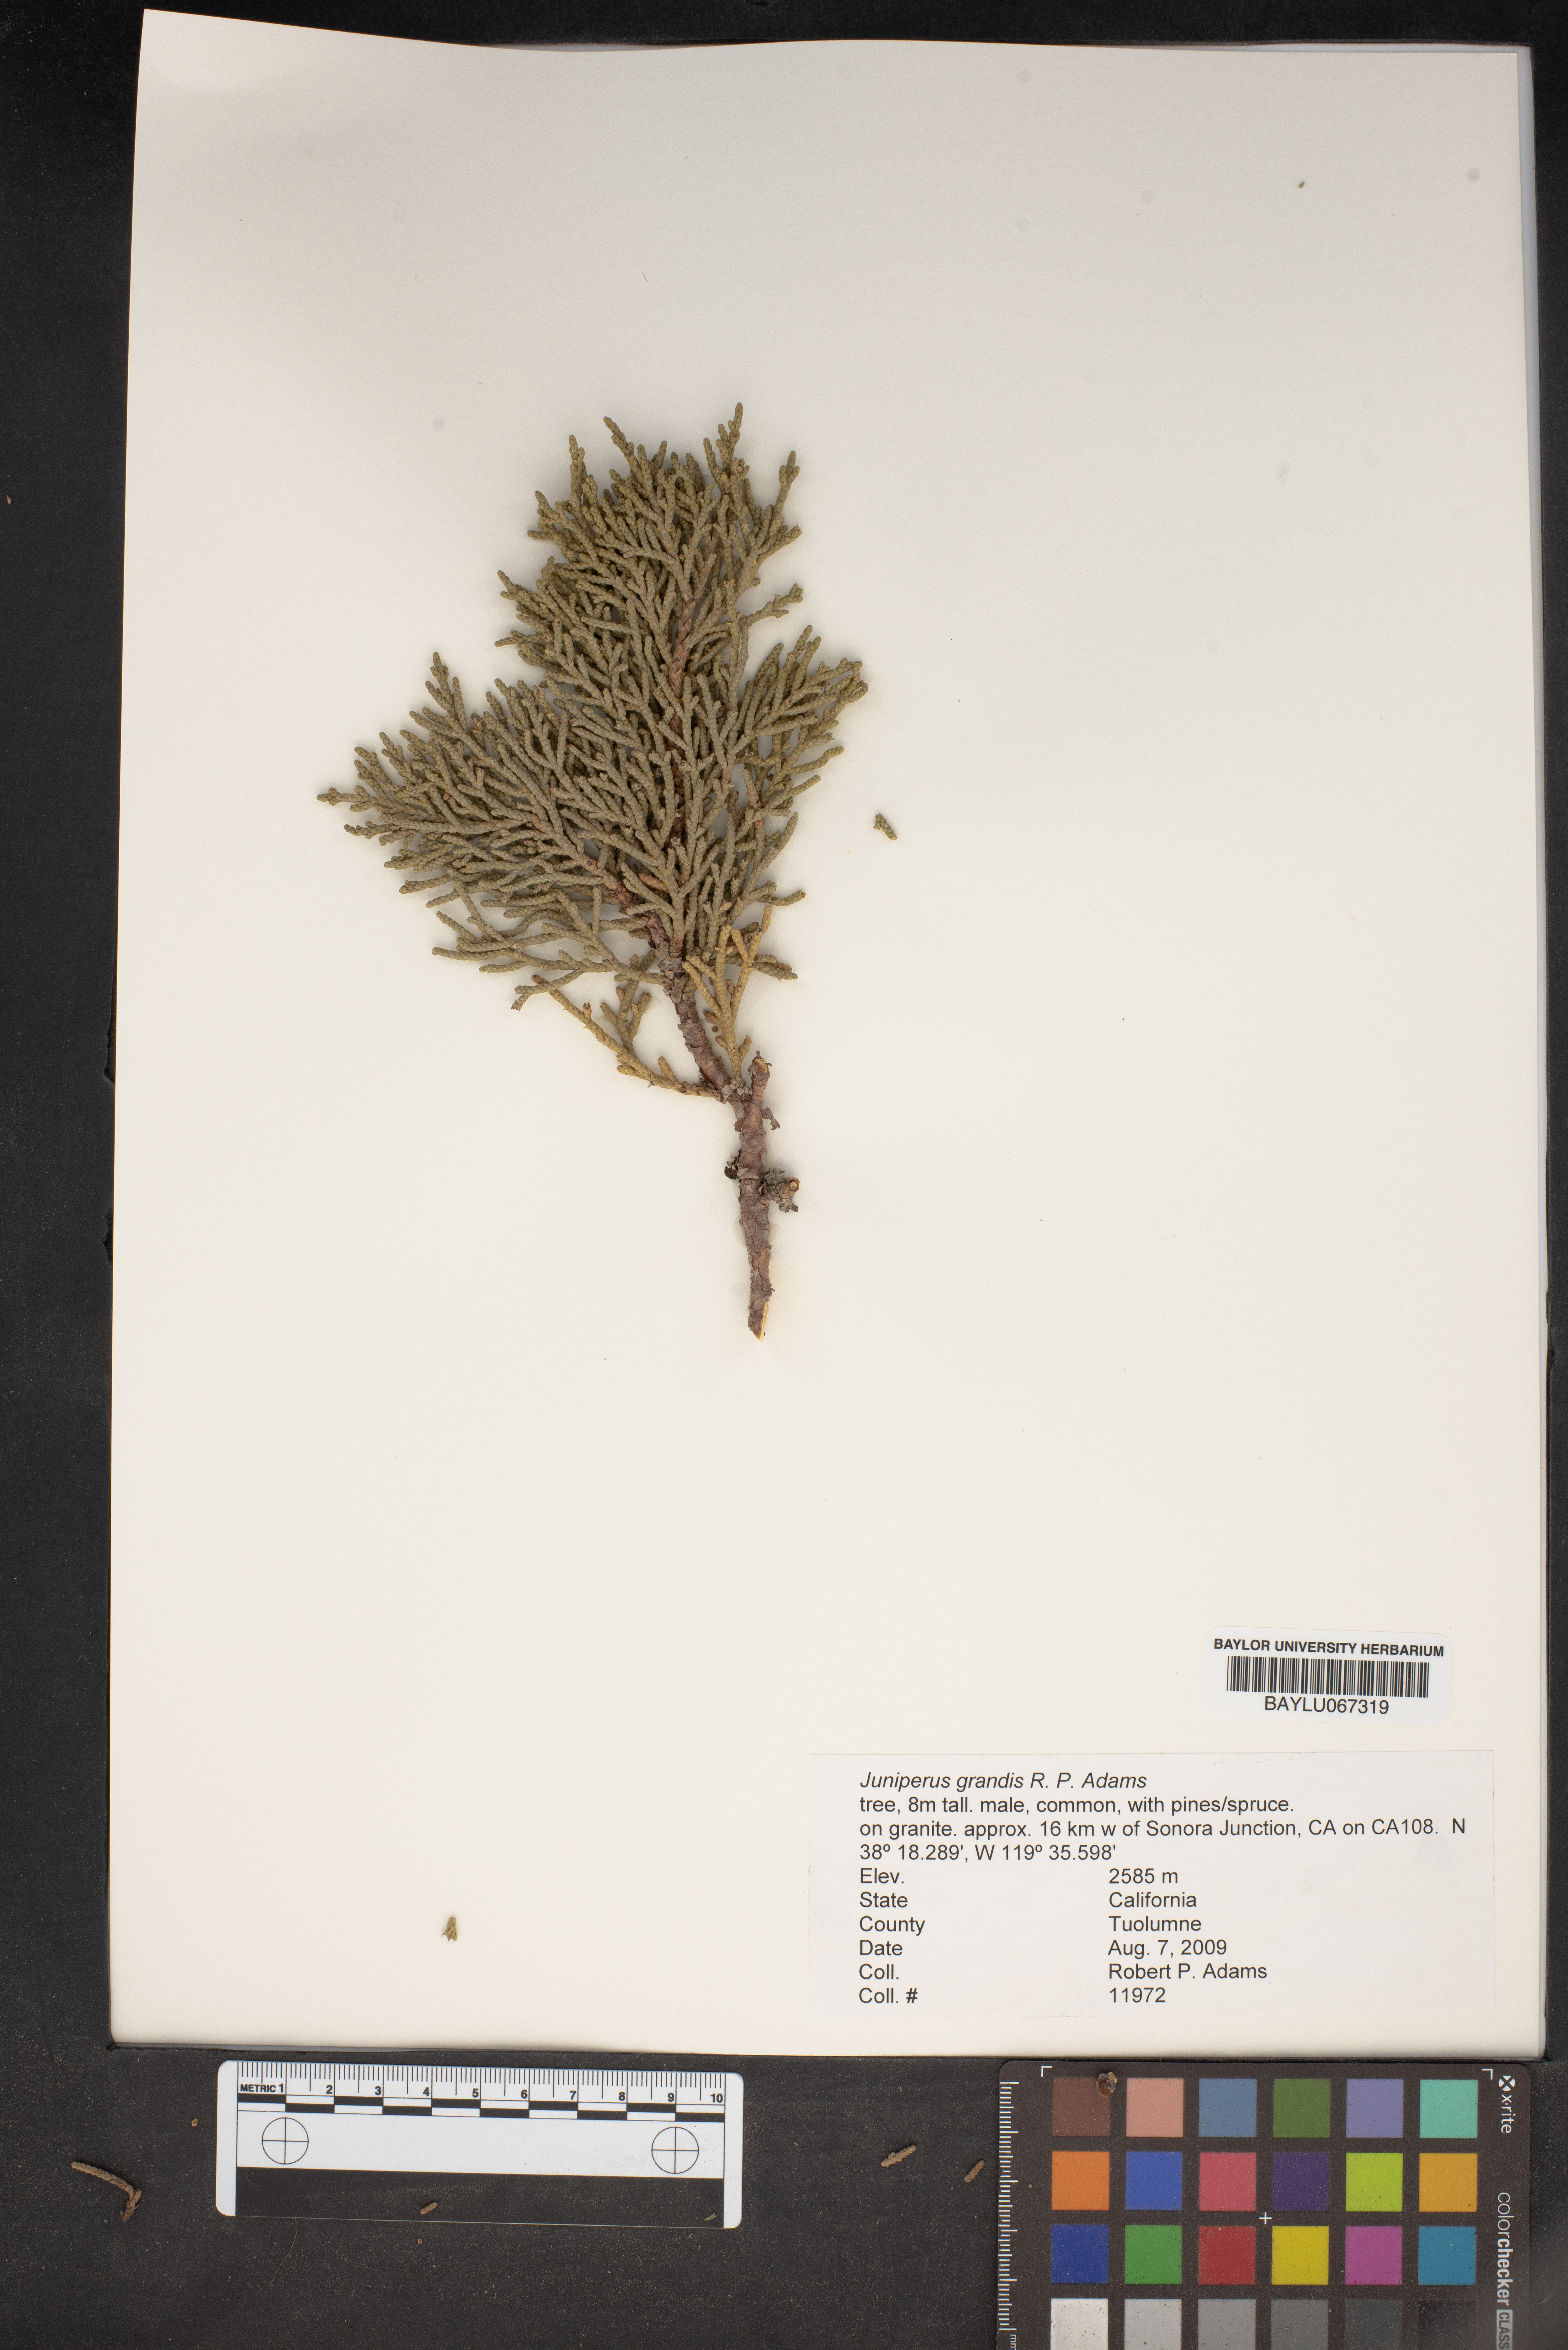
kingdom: Plantae
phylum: Tracheophyta
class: Pinopsida
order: Pinales
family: Cupressaceae
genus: Juniperus
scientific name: Juniperus occidentalis
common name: Western juniper
